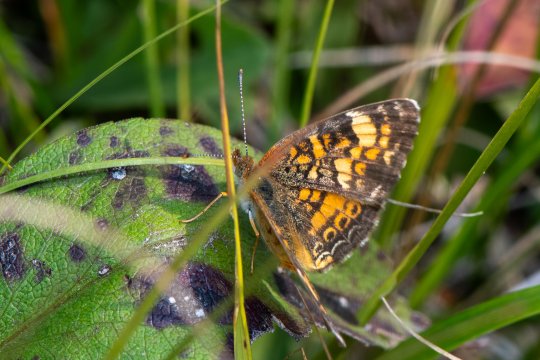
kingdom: Animalia
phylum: Arthropoda
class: Insecta
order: Lepidoptera
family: Nymphalidae
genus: Phyciodes
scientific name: Phyciodes tharos
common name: Northern Crescent
